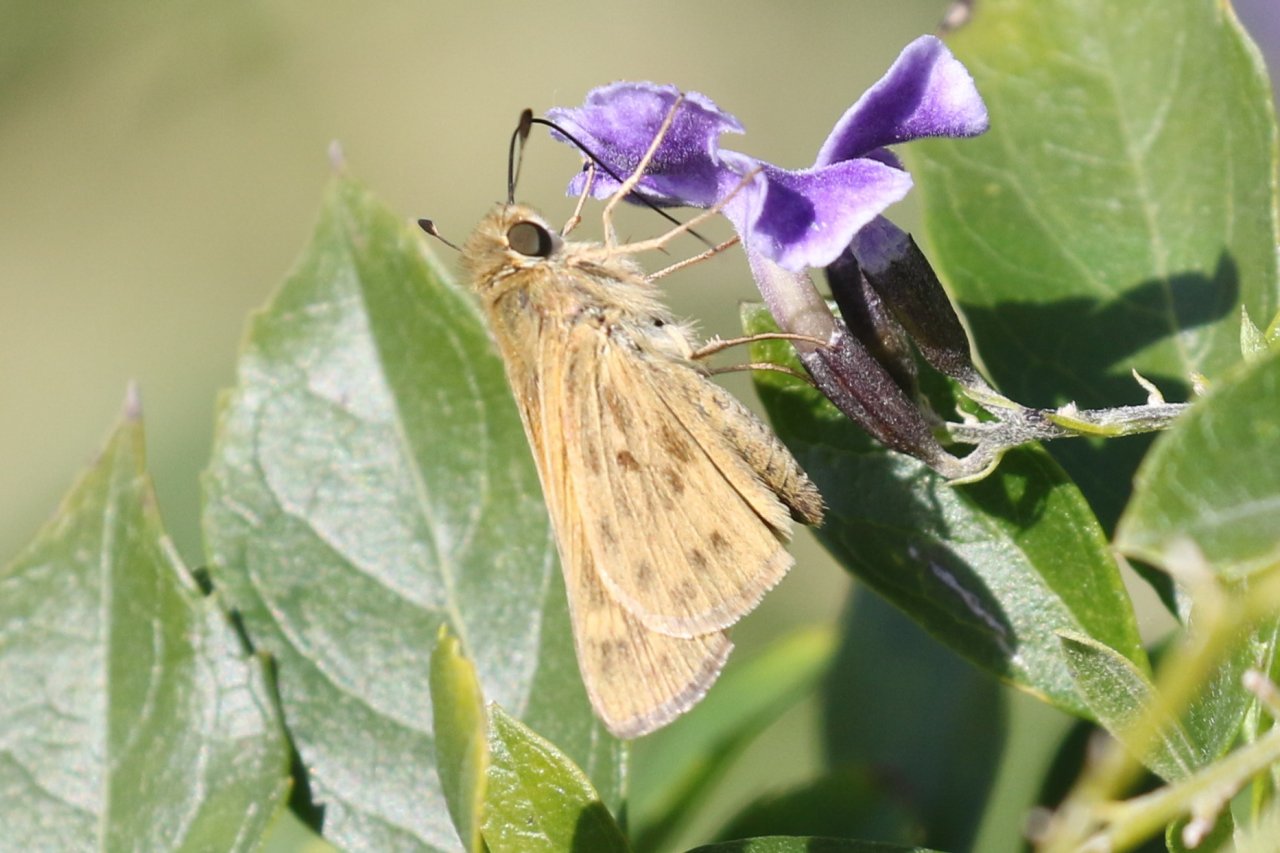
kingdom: Animalia
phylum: Arthropoda
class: Insecta
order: Lepidoptera
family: Hesperiidae
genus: Hylephila
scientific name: Hylephila phyleus
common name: Fiery Skipper
